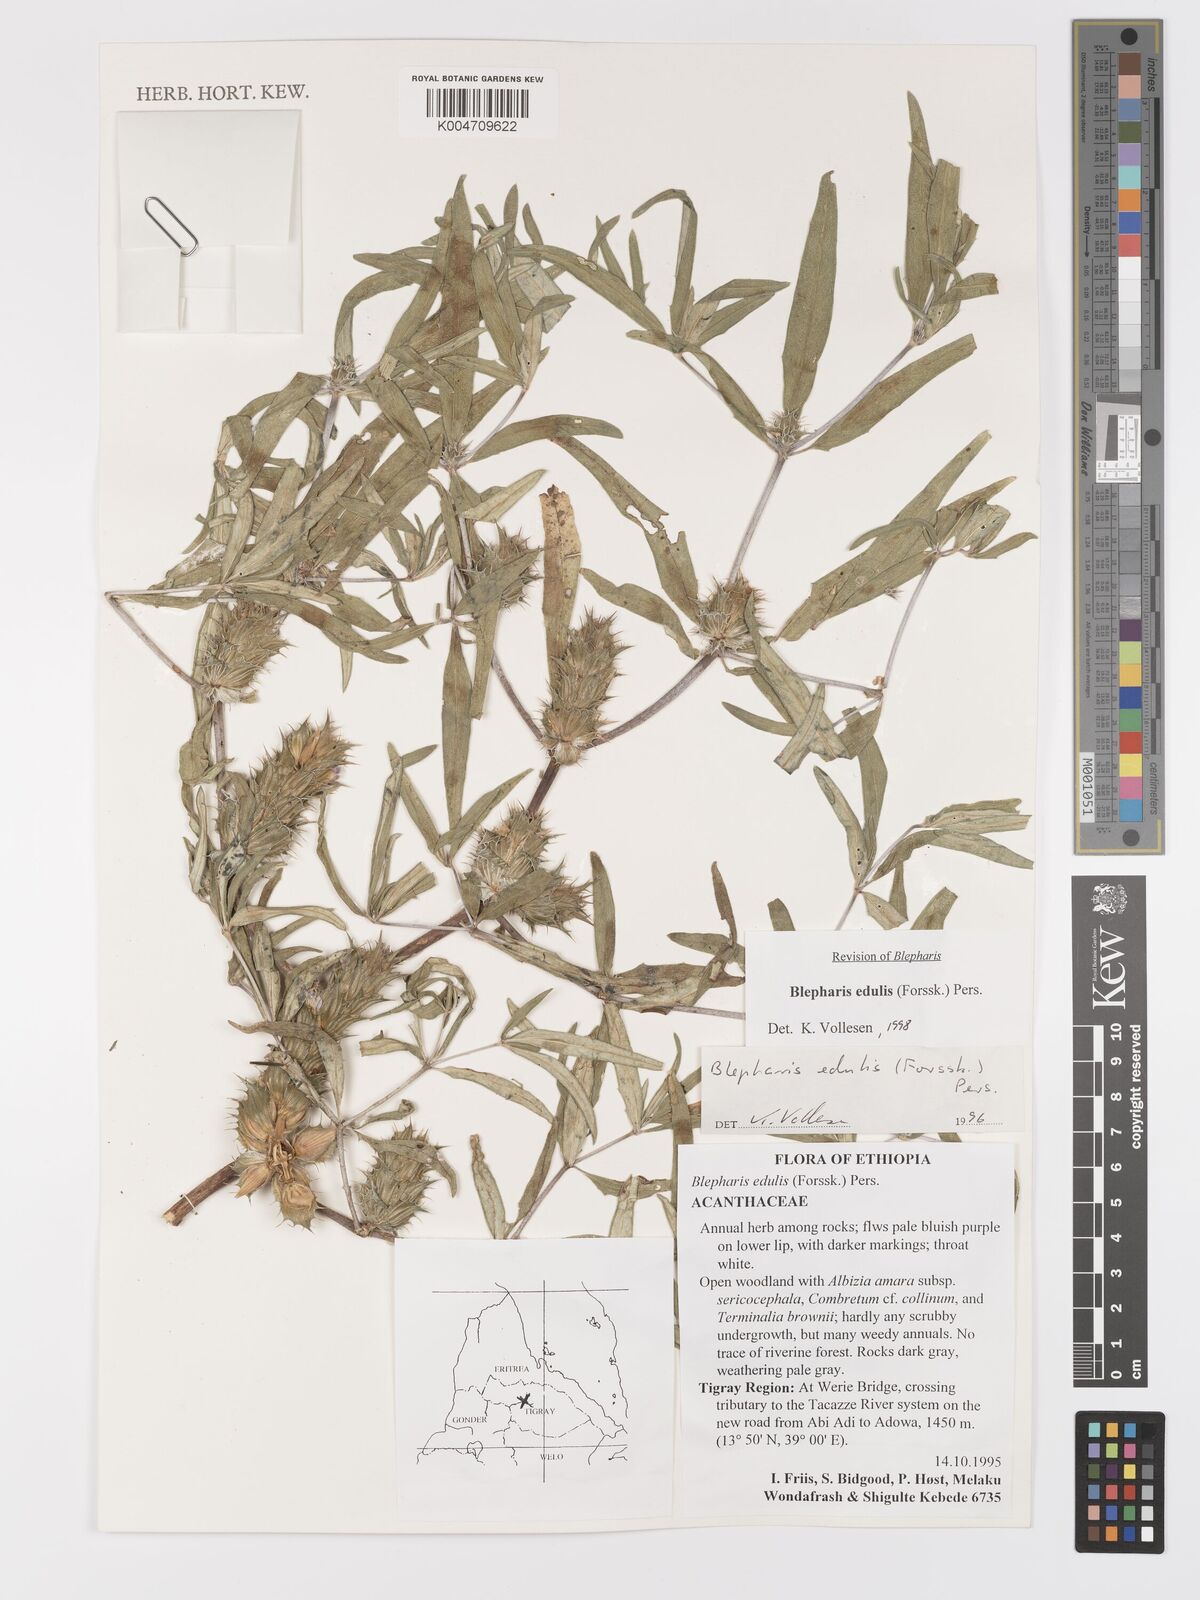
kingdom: Plantae
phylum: Tracheophyta
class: Magnoliopsida
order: Lamiales
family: Acanthaceae
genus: Blepharis
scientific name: Blepharis edulis
